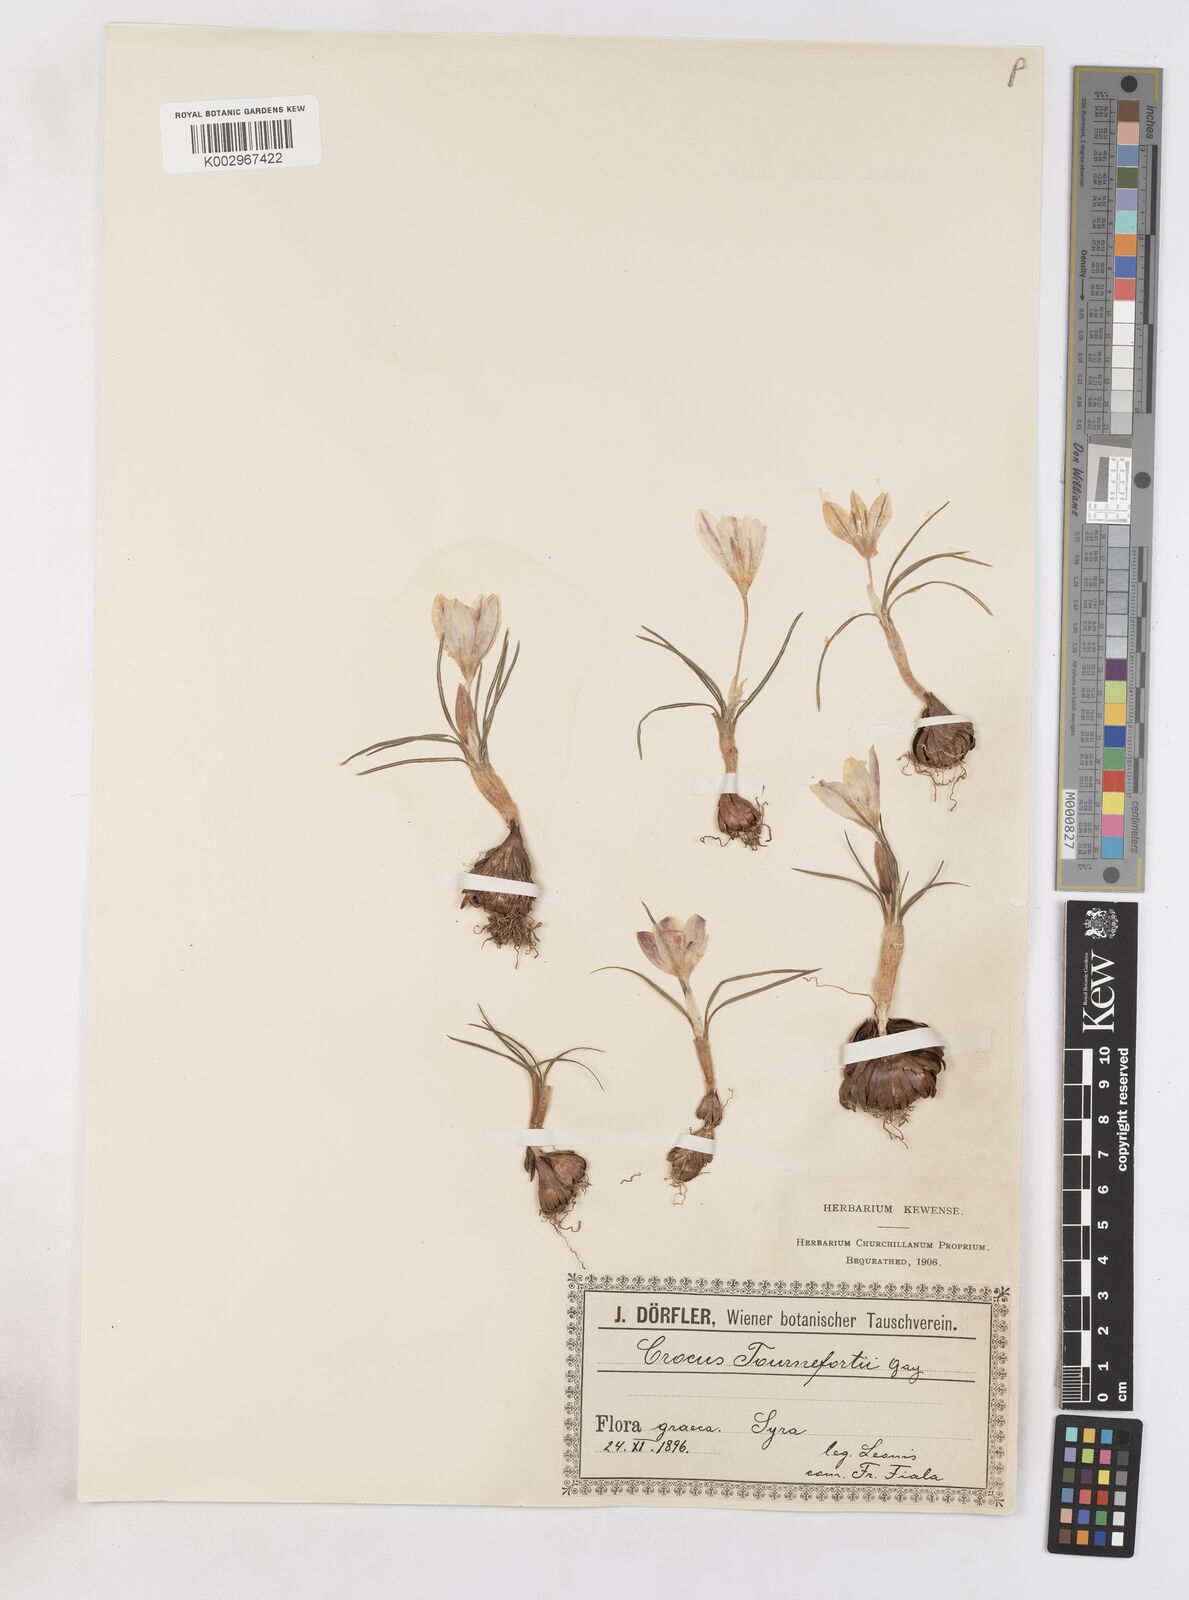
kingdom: Plantae
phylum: Tracheophyta
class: Liliopsida
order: Asparagales
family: Iridaceae
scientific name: Iridaceae
